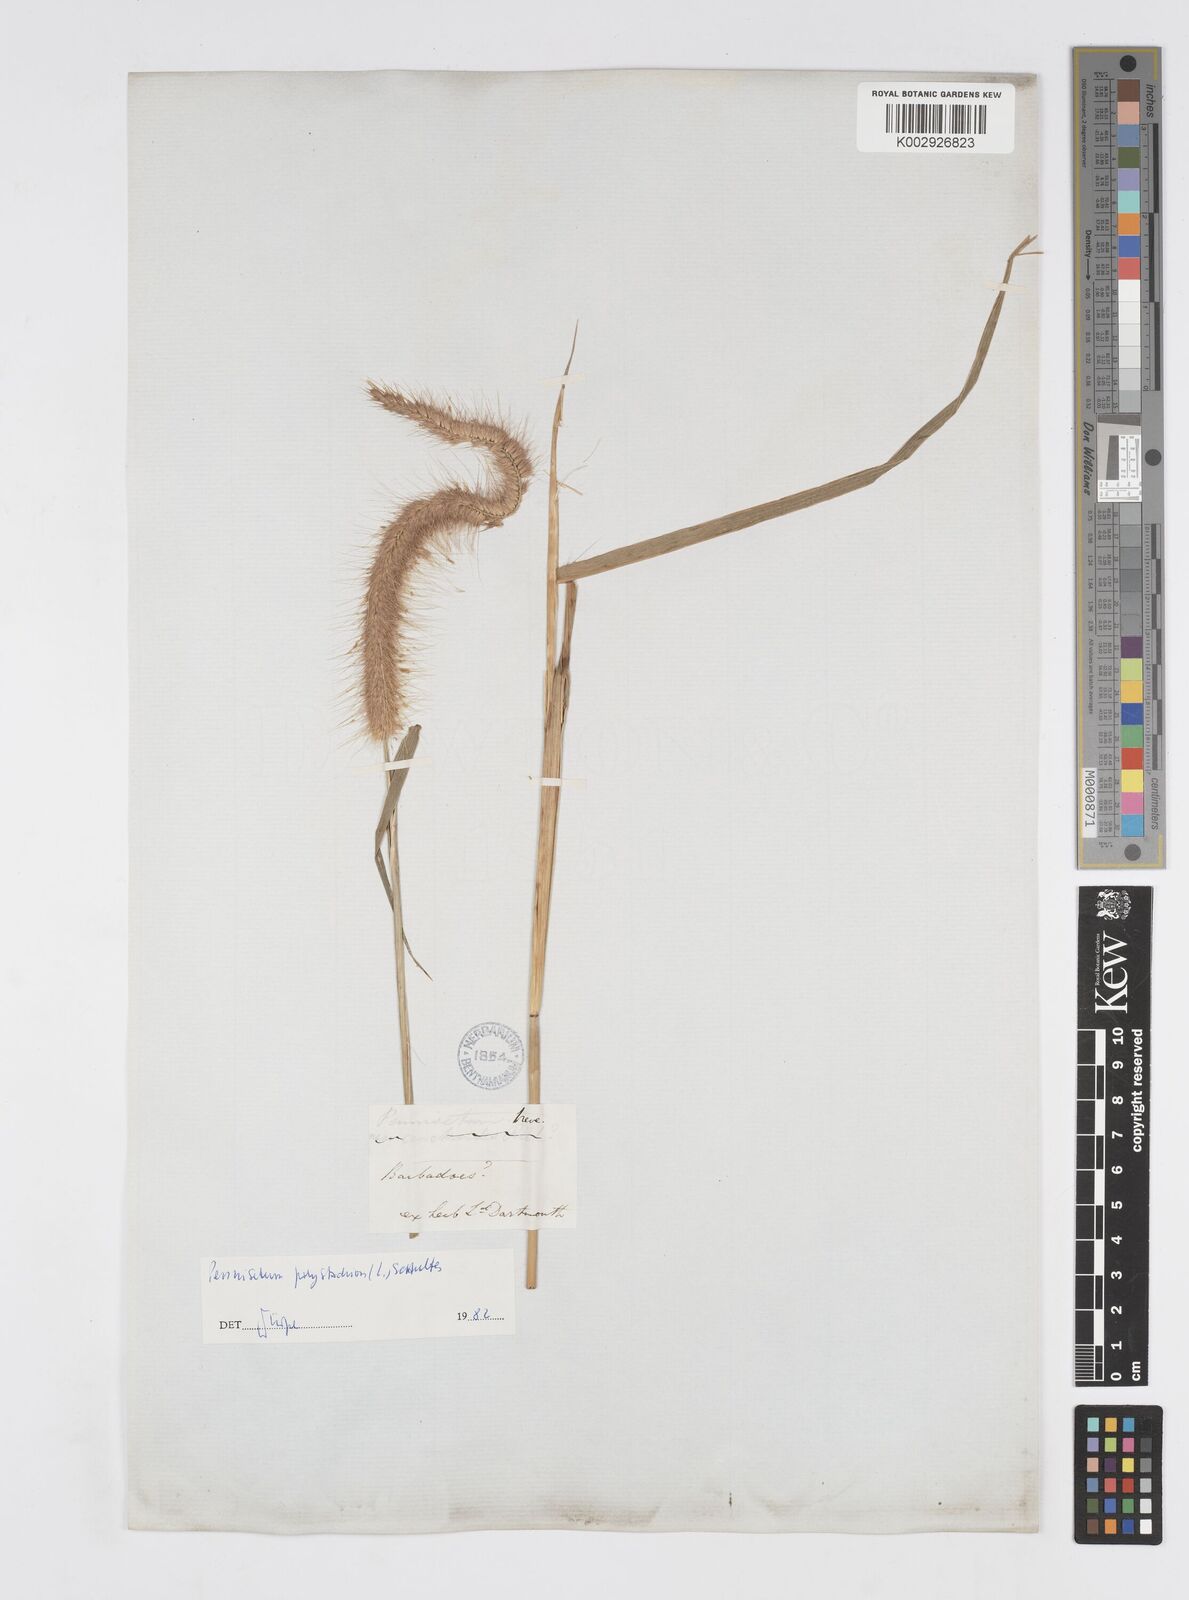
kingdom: Plantae
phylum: Tracheophyta
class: Liliopsida
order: Poales
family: Poaceae
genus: Cenchrus
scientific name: Cenchrus setosus
